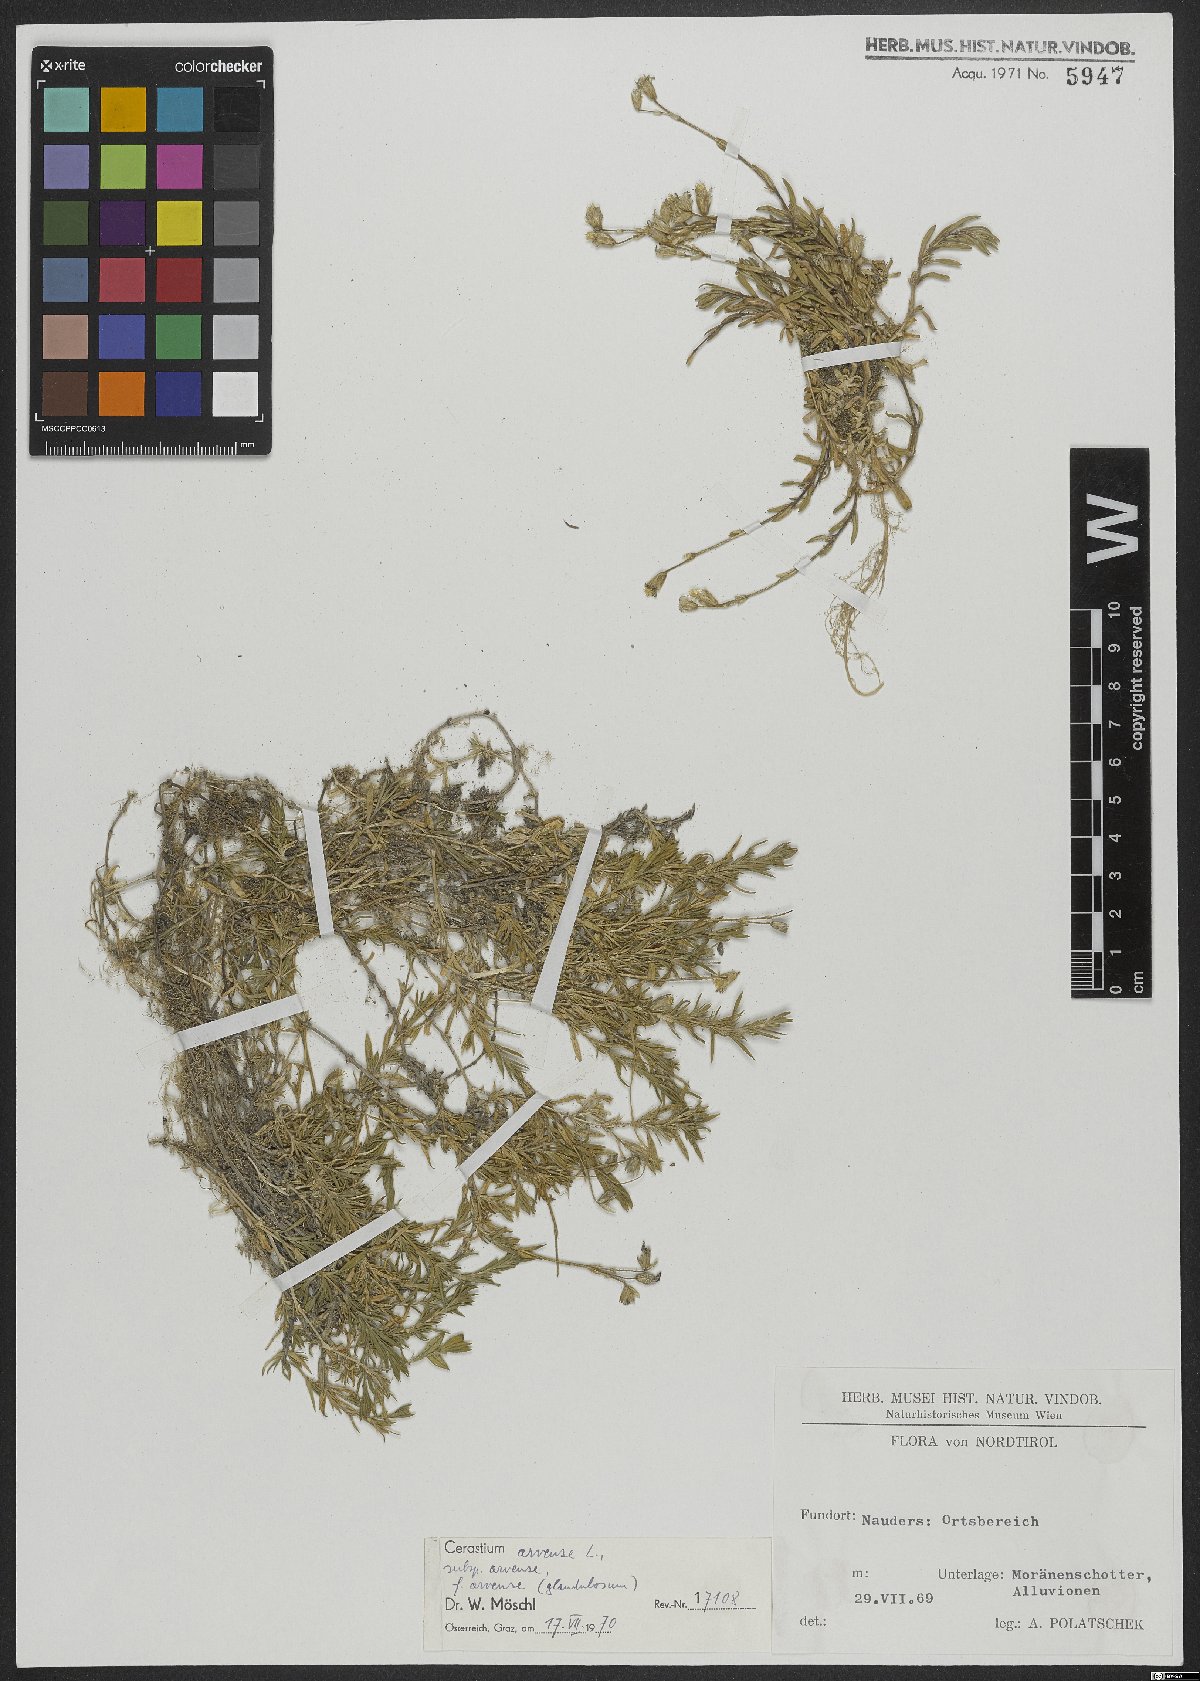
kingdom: Plantae
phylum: Tracheophyta
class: Magnoliopsida
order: Caryophyllales
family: Caryophyllaceae
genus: Cerastium
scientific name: Cerastium arvense
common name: Field mouse-ear
